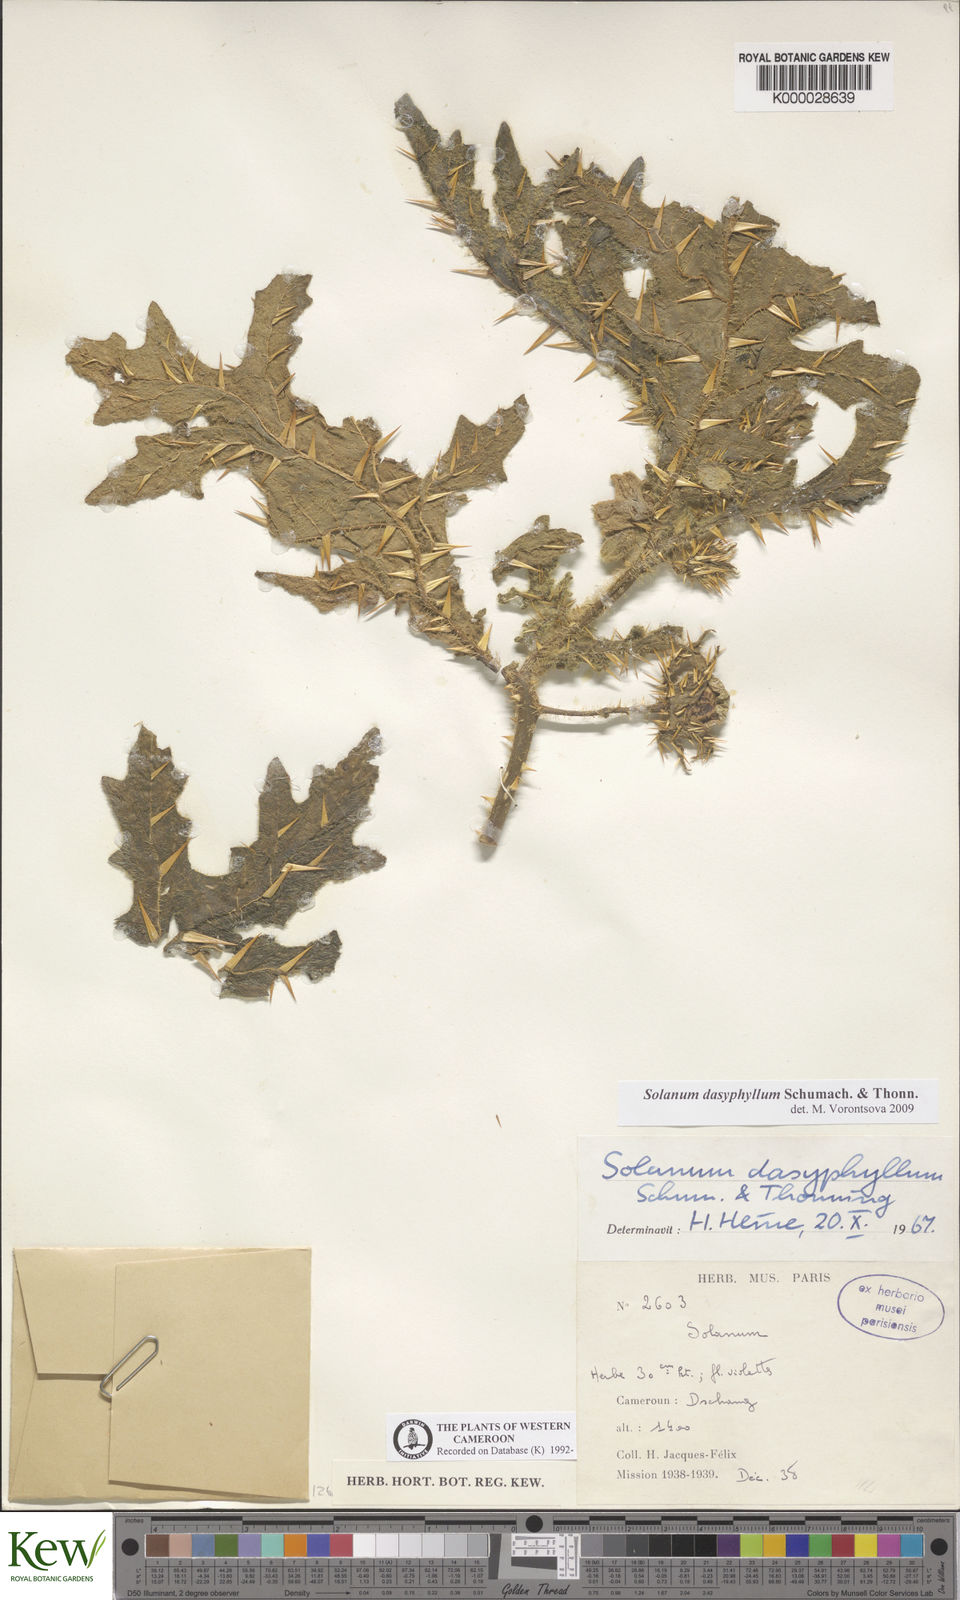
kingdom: Plantae
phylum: Tracheophyta
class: Magnoliopsida
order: Solanales
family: Solanaceae
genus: Solanum
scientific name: Solanum dasyphyllum
